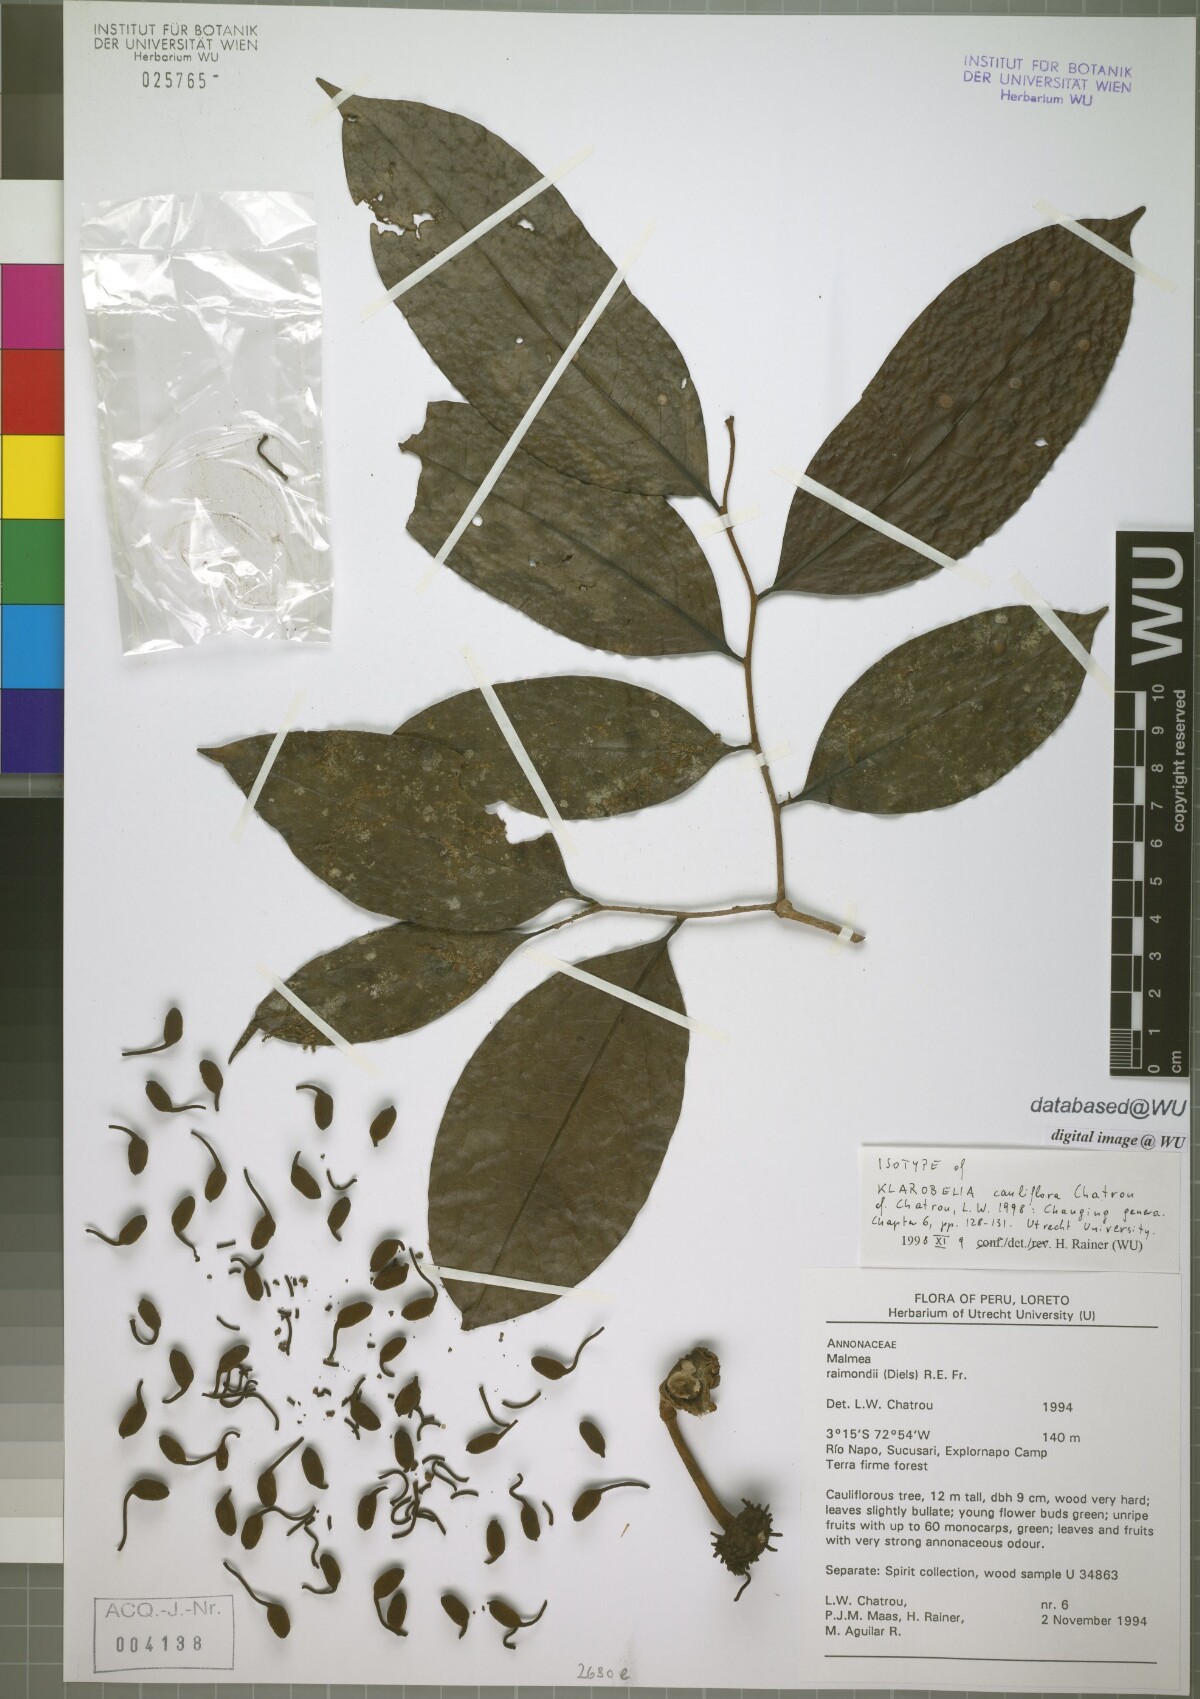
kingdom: Plantae
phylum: Tracheophyta
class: Magnoliopsida
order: Magnoliales
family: Annonaceae
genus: Klarobelia
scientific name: Klarobelia cauliflora
